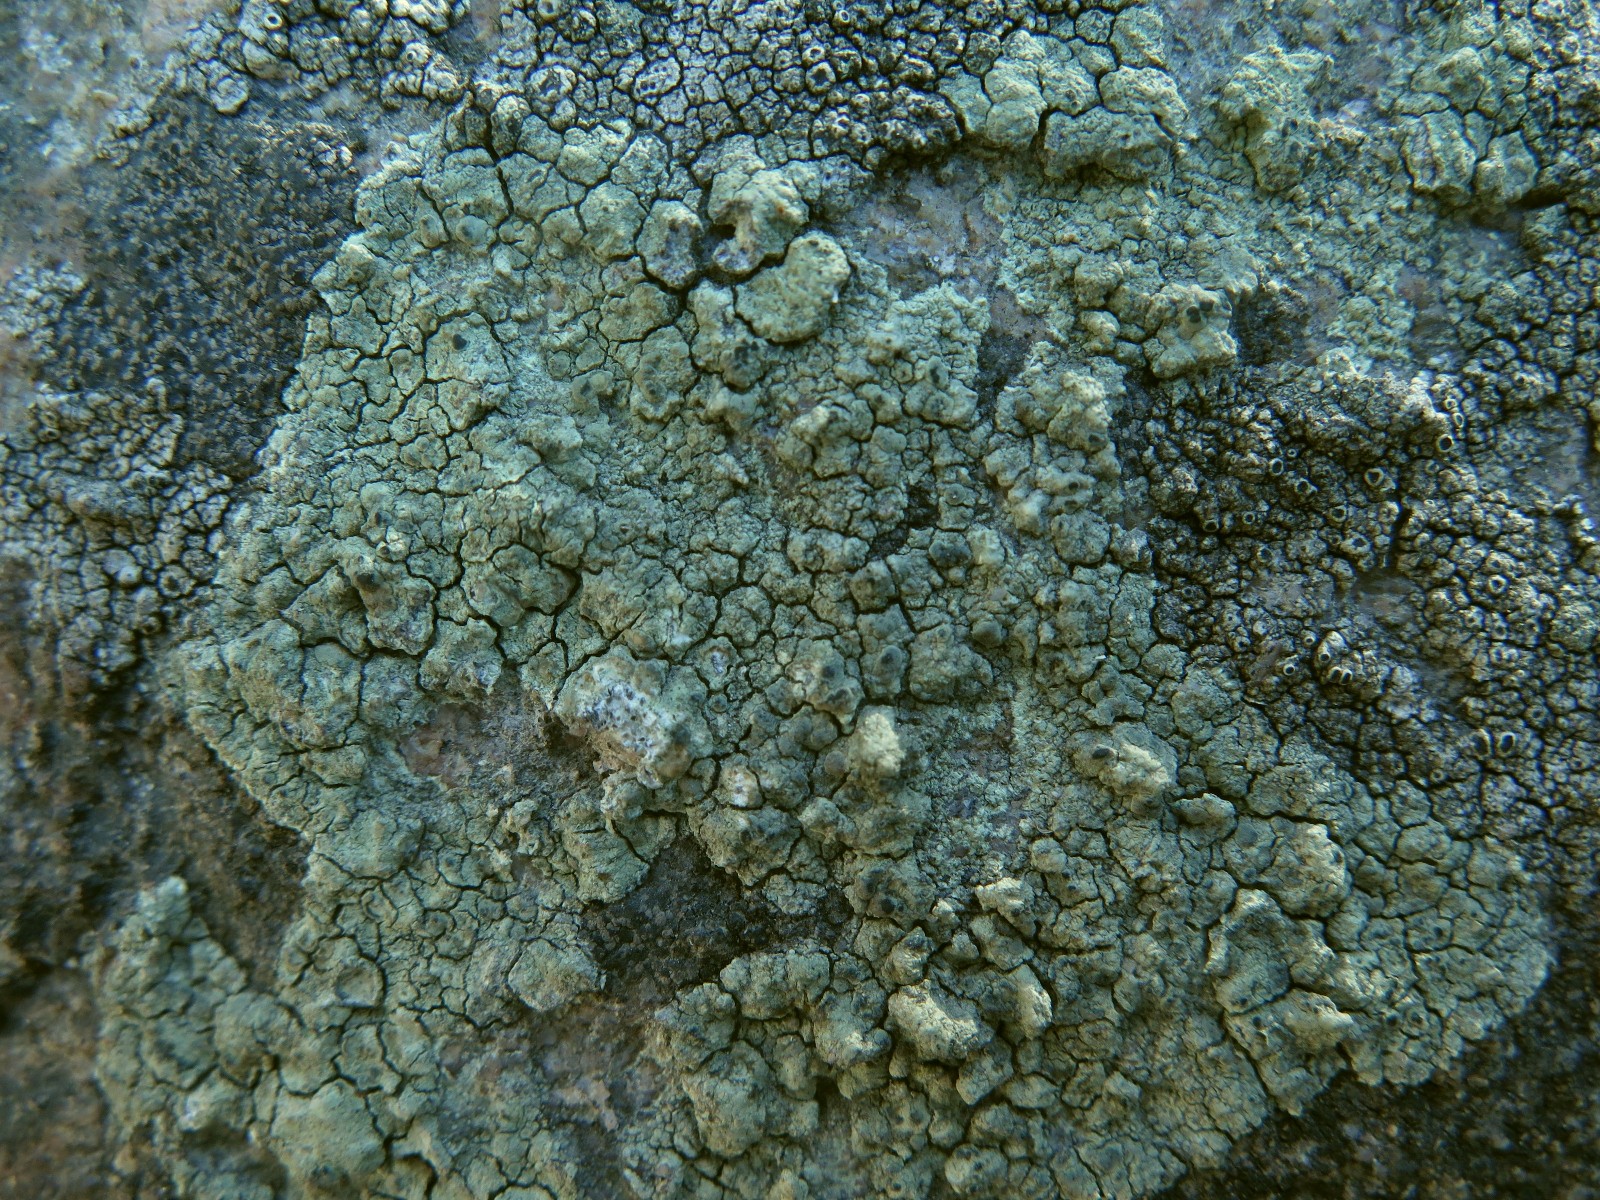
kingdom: Fungi
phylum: Ascomycota
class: Lecanoromycetes
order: Lecanorales
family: Lecanoraceae
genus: Glaucomaria
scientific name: Glaucomaria sulphurea
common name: svovlgul kantskivelav
